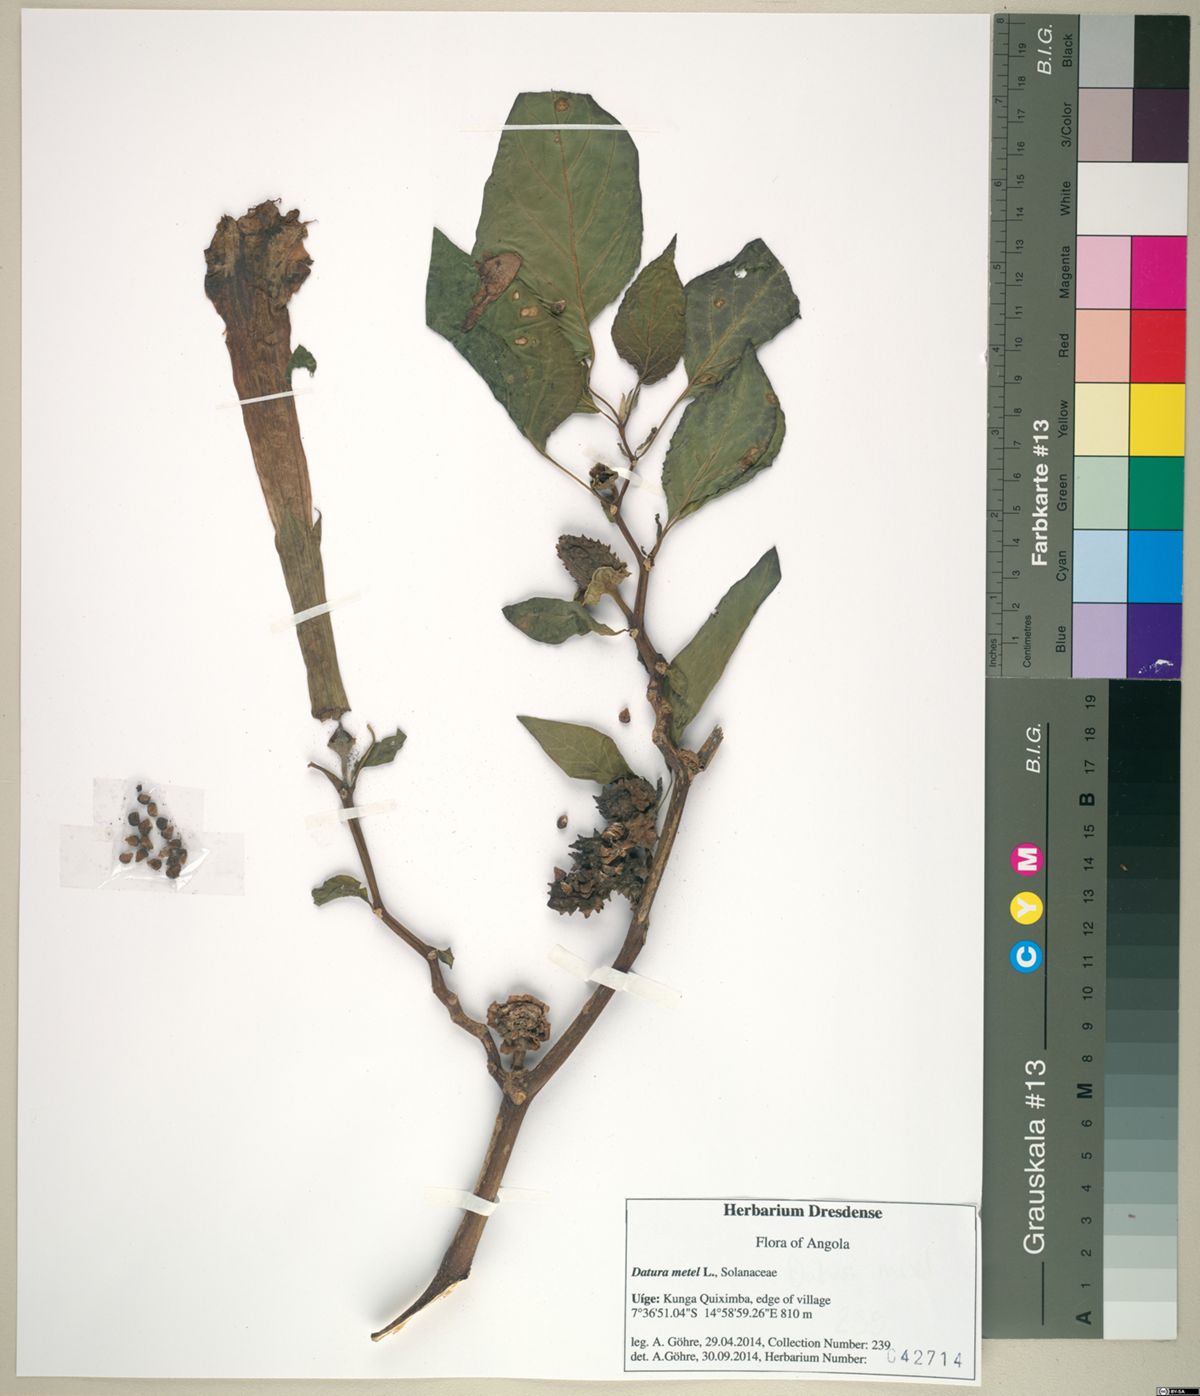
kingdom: Plantae
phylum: Tracheophyta
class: Magnoliopsida
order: Solanales
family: Solanaceae
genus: Datura
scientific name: Datura metel
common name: Jimsonweed
